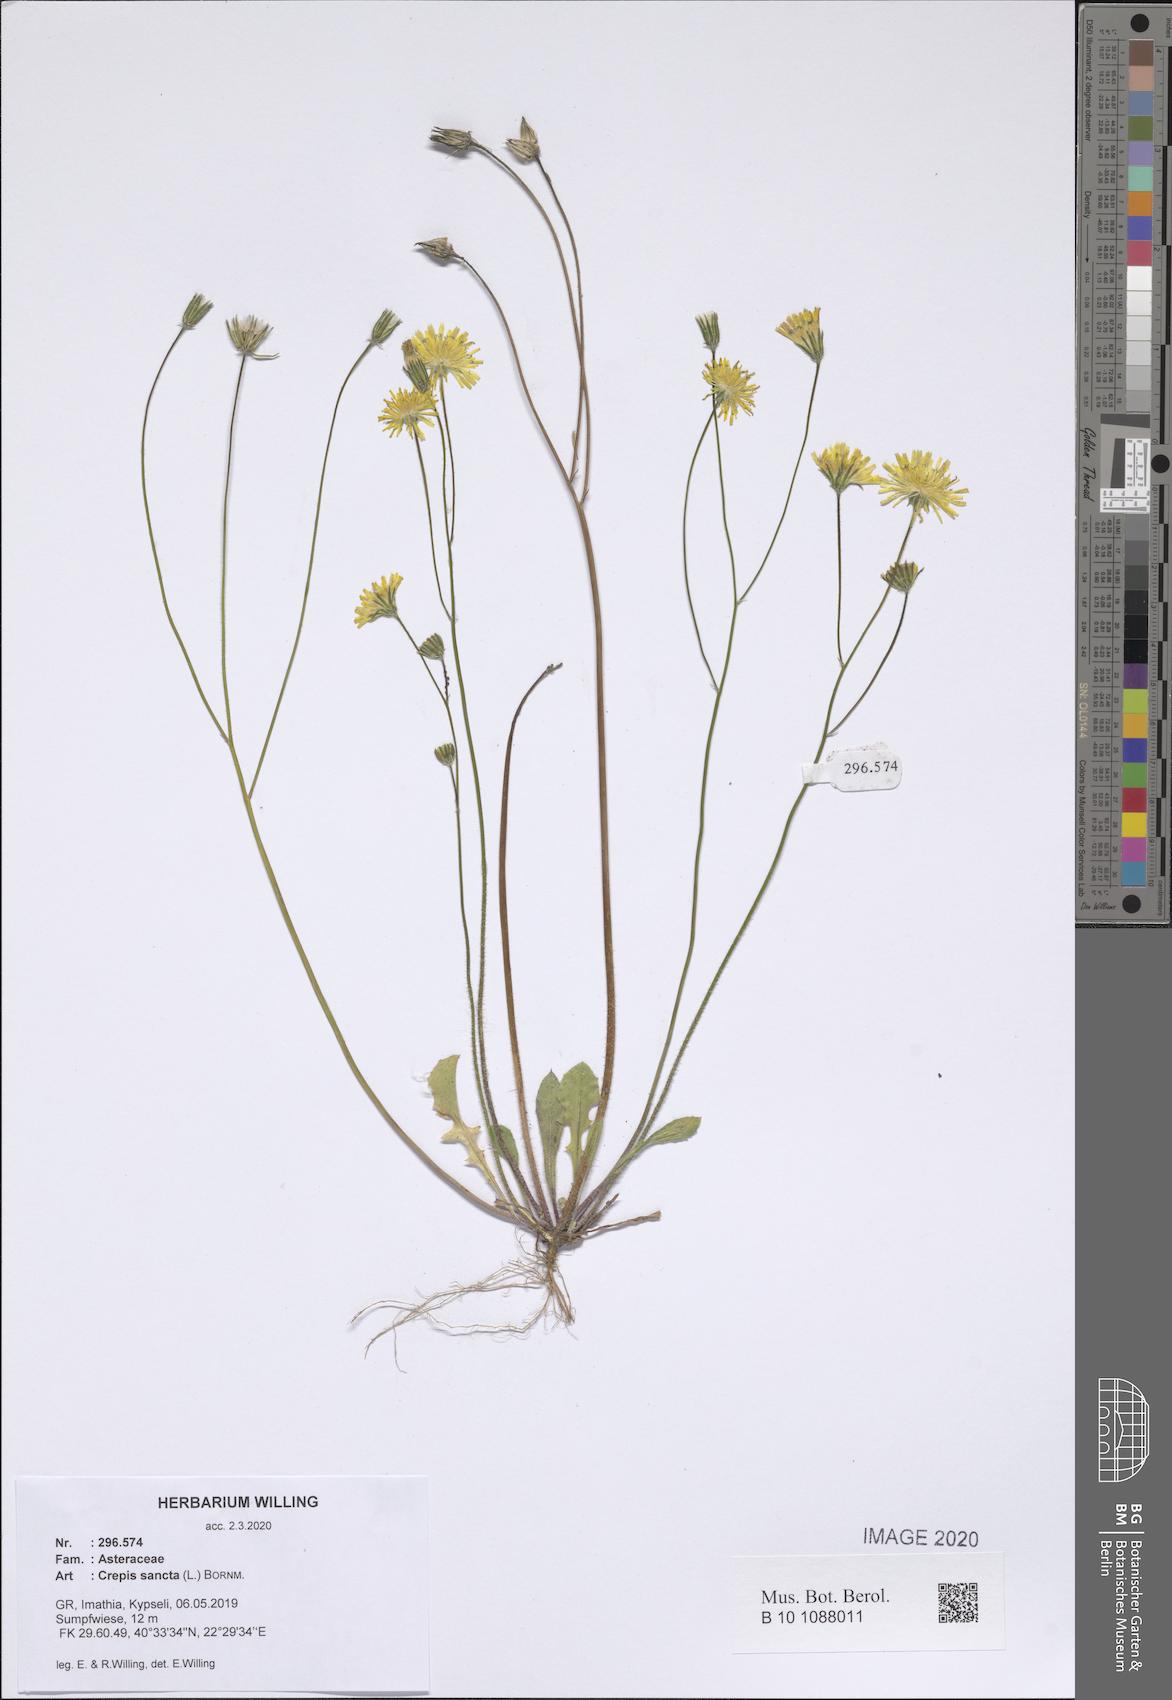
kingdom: Plantae
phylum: Tracheophyta
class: Magnoliopsida
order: Asterales
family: Asteraceae
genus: Crepis
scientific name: Crepis sancta
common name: Hawk's-beard
